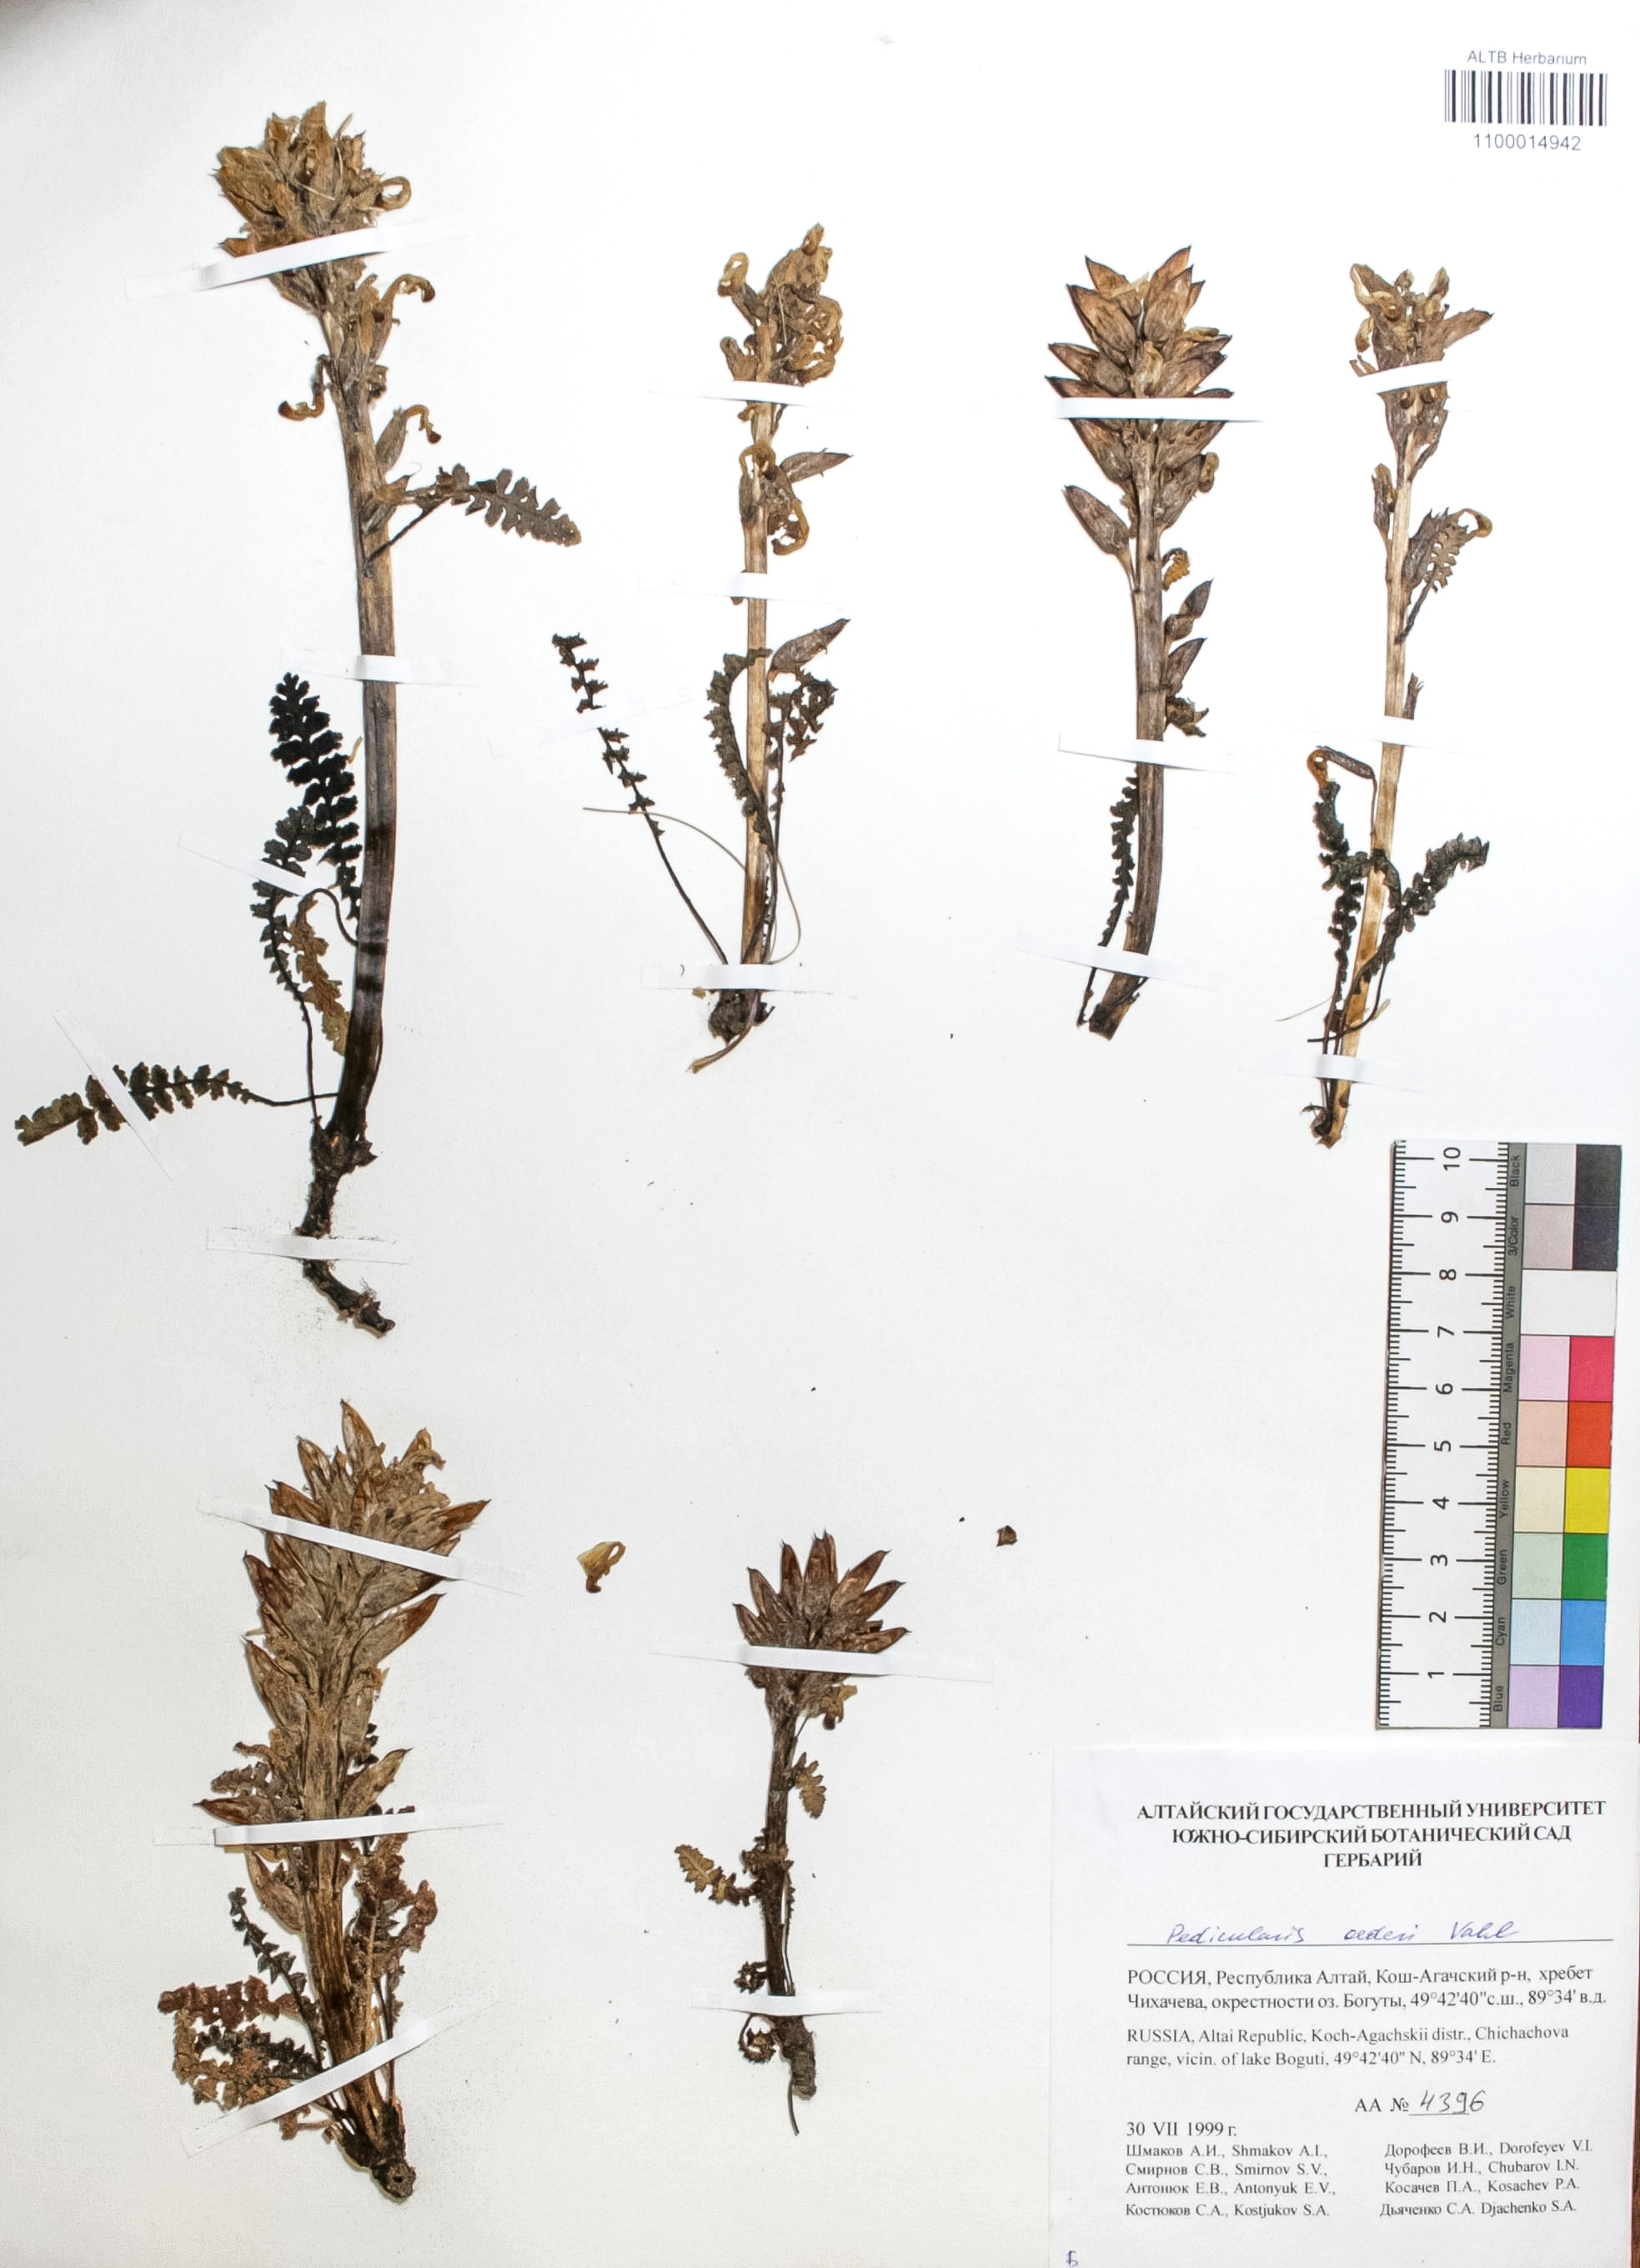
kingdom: Plantae
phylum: Tracheophyta
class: Magnoliopsida
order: Caryophyllales
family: Caryophyllaceae
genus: Silene
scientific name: Silene graminifolia
